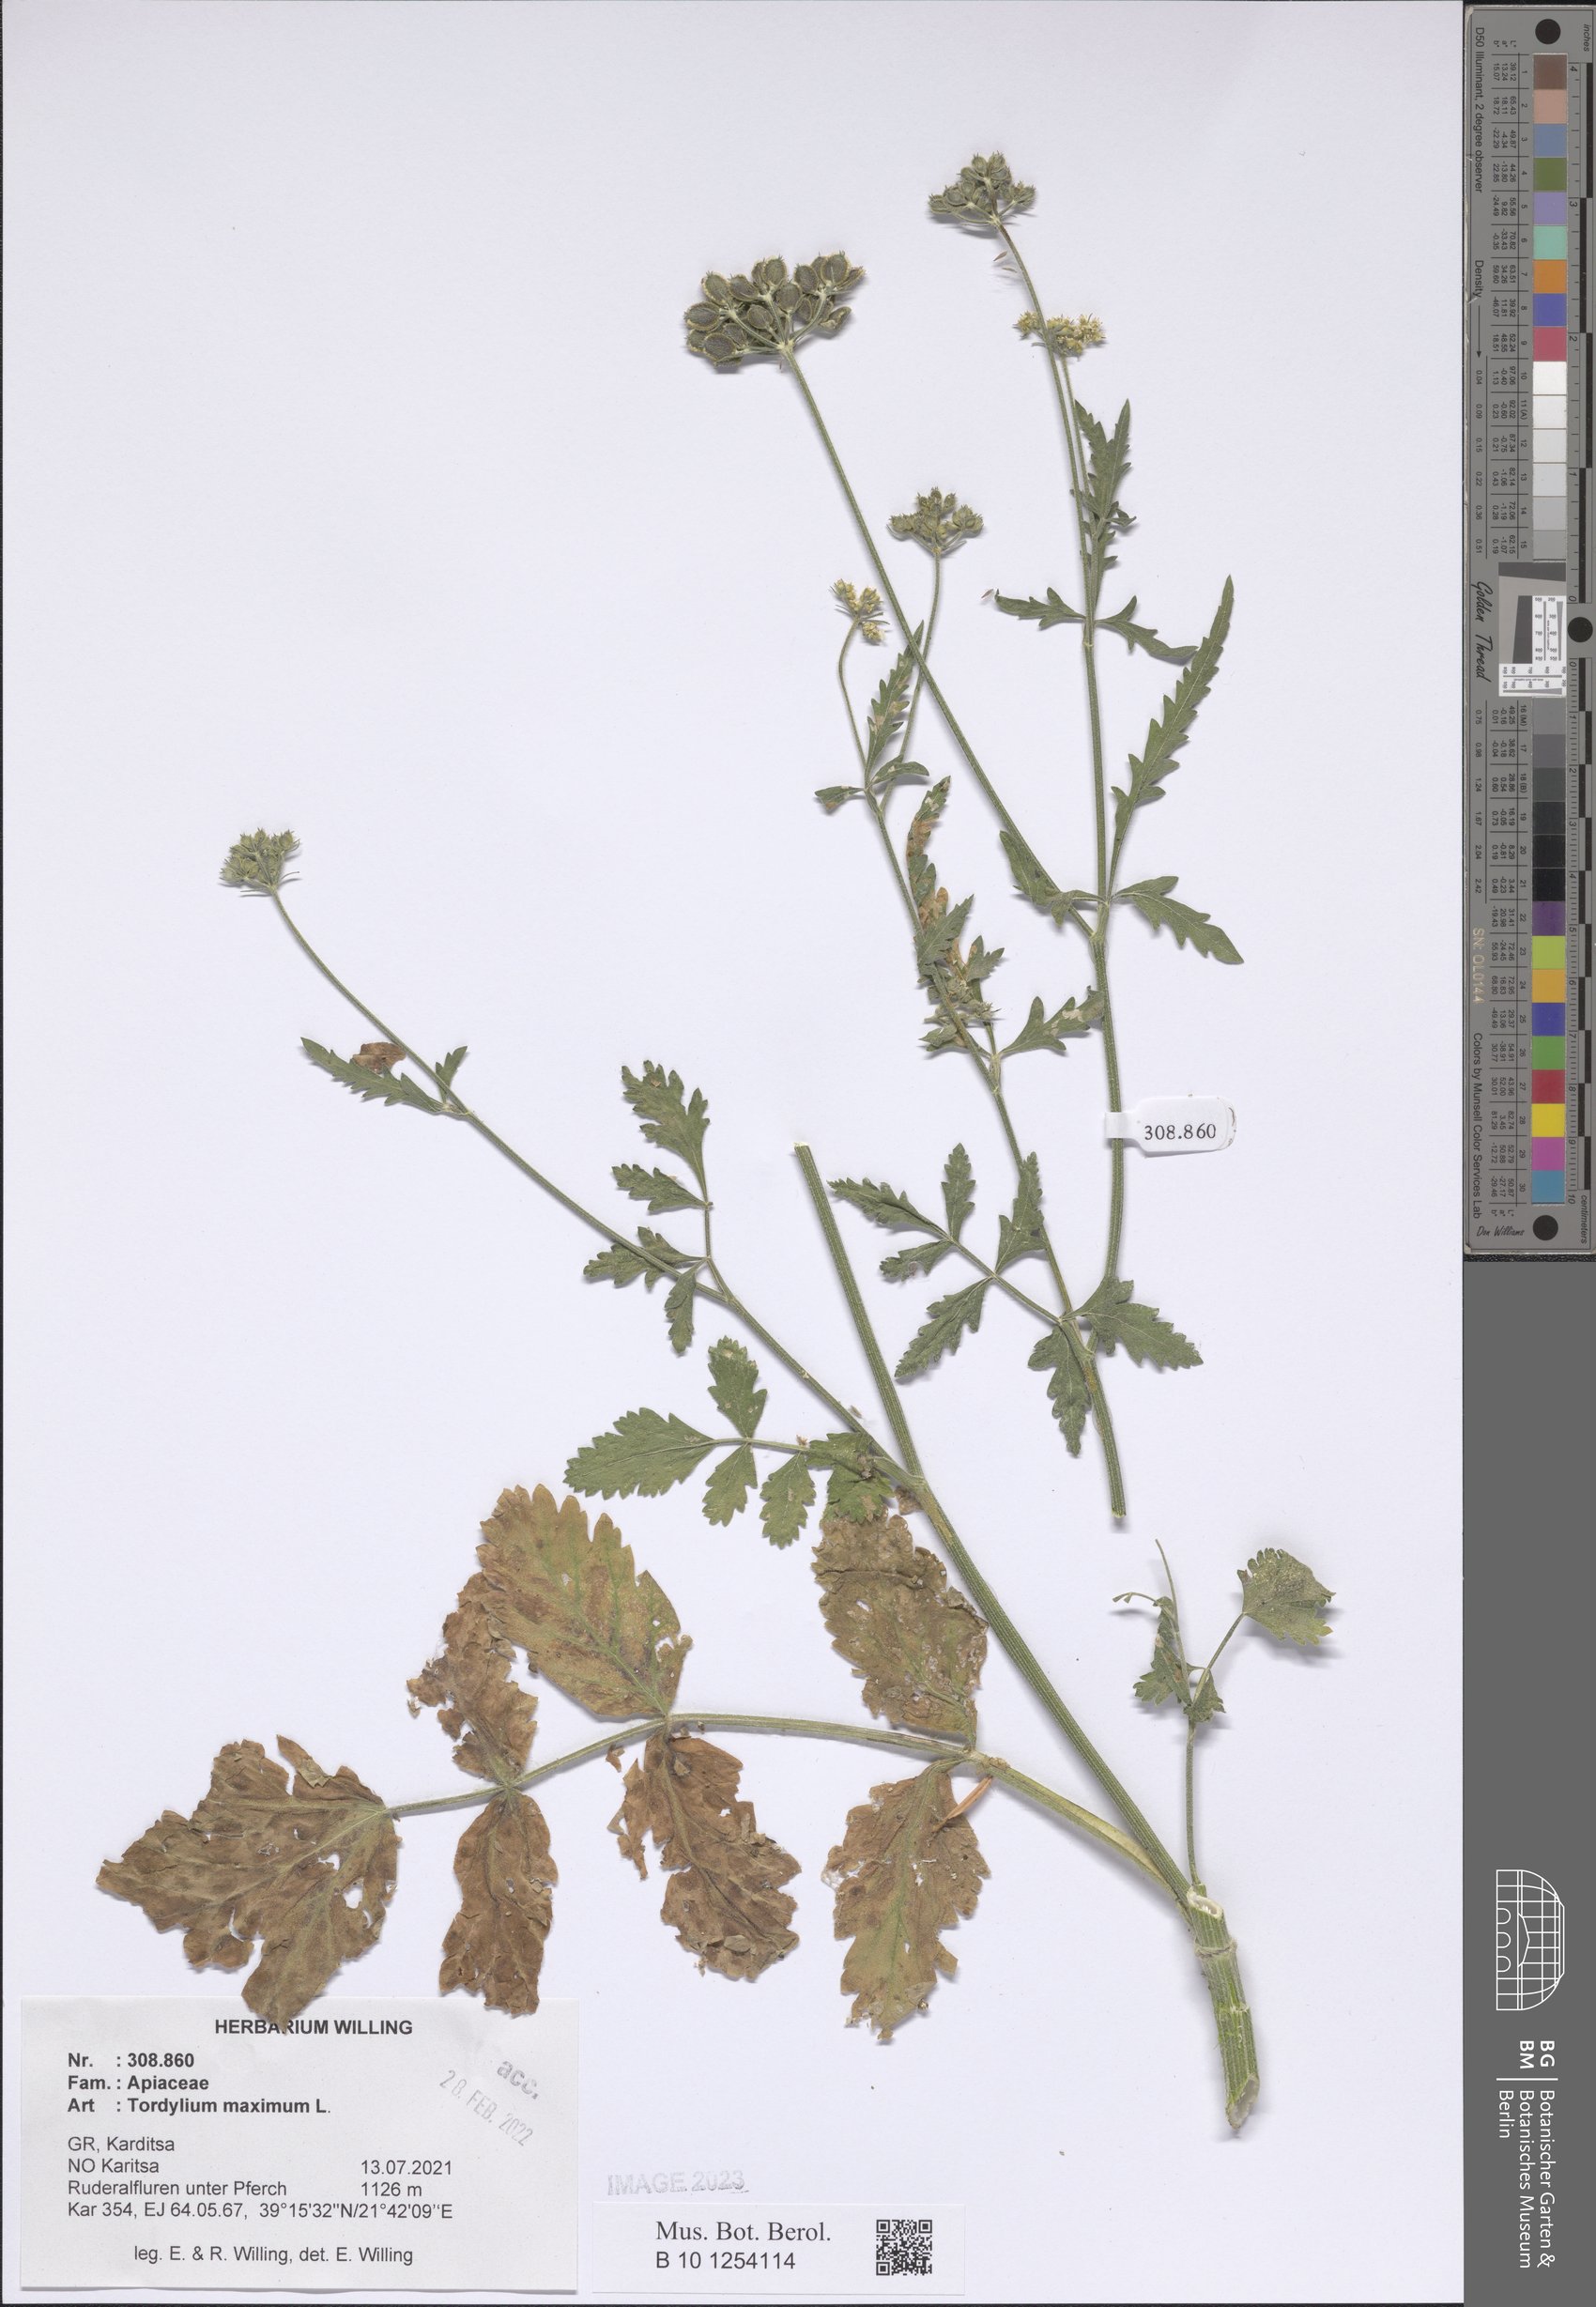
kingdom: Plantae
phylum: Tracheophyta
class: Magnoliopsida
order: Apiales
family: Apiaceae
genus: Tordylium
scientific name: Tordylium maximum
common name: Hartwort
